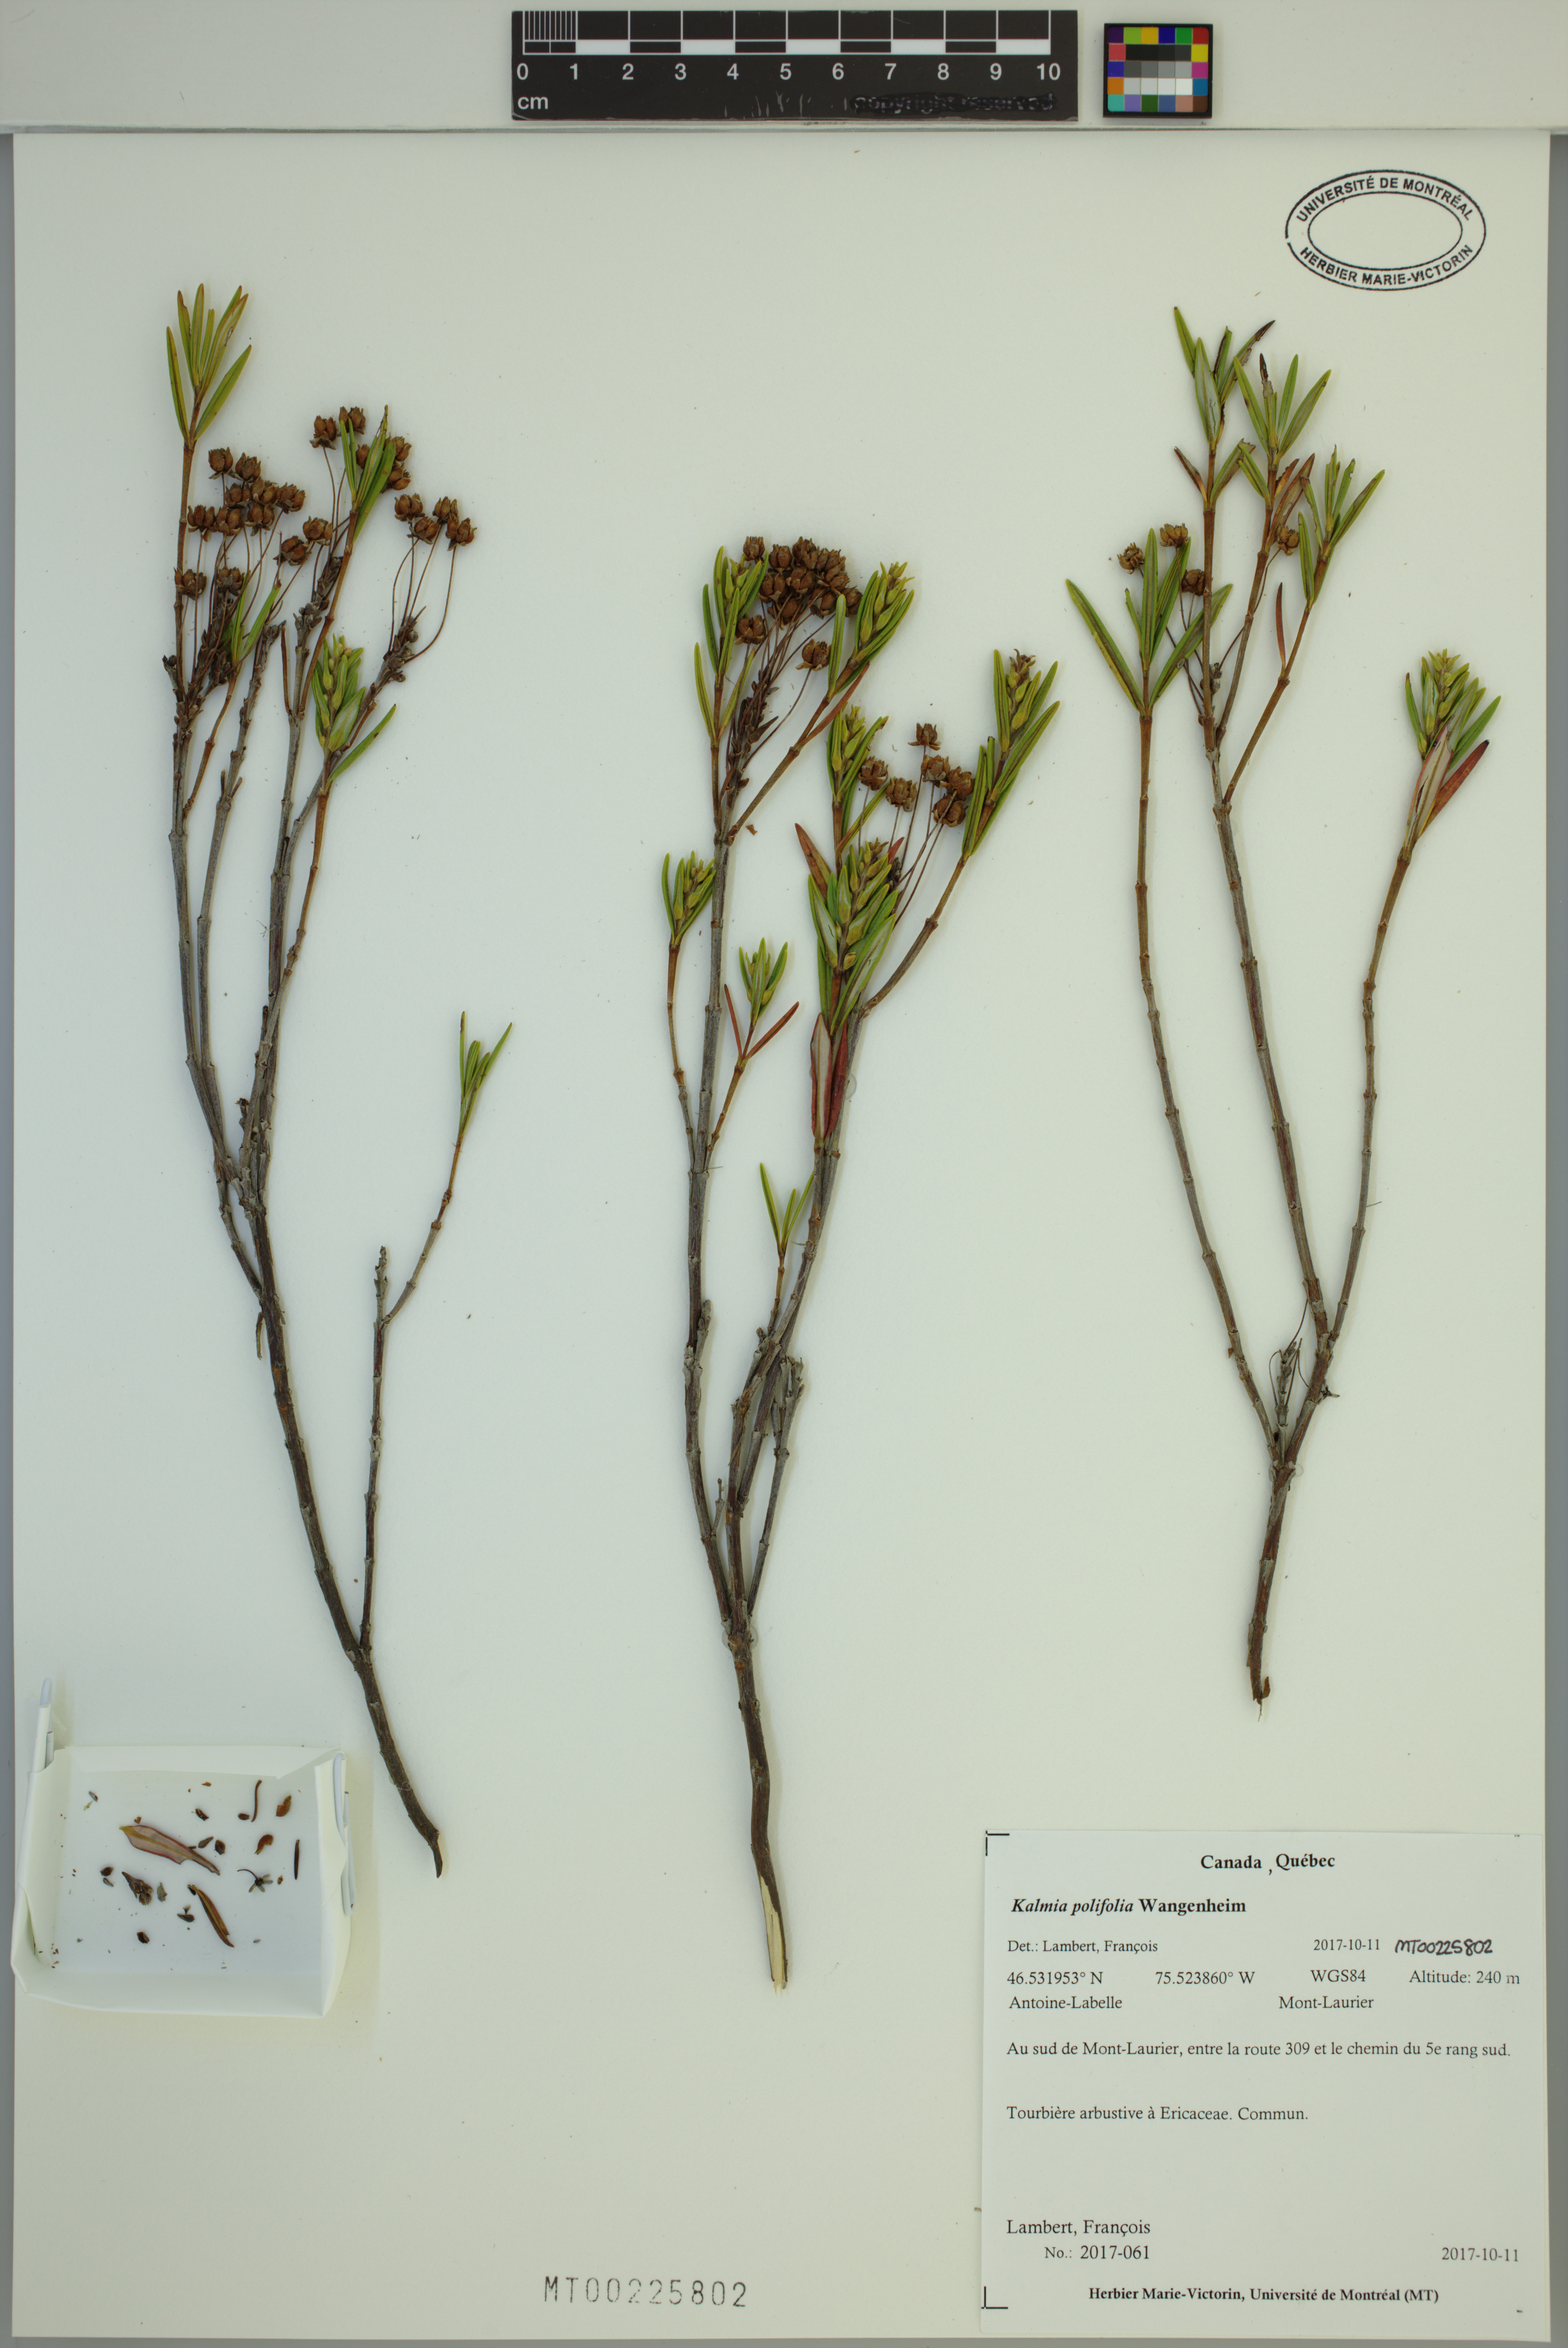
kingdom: Plantae
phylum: Tracheophyta
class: Magnoliopsida
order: Ericales
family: Ericaceae
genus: Kalmia
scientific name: Kalmia polifolia
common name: Bog-laurel
